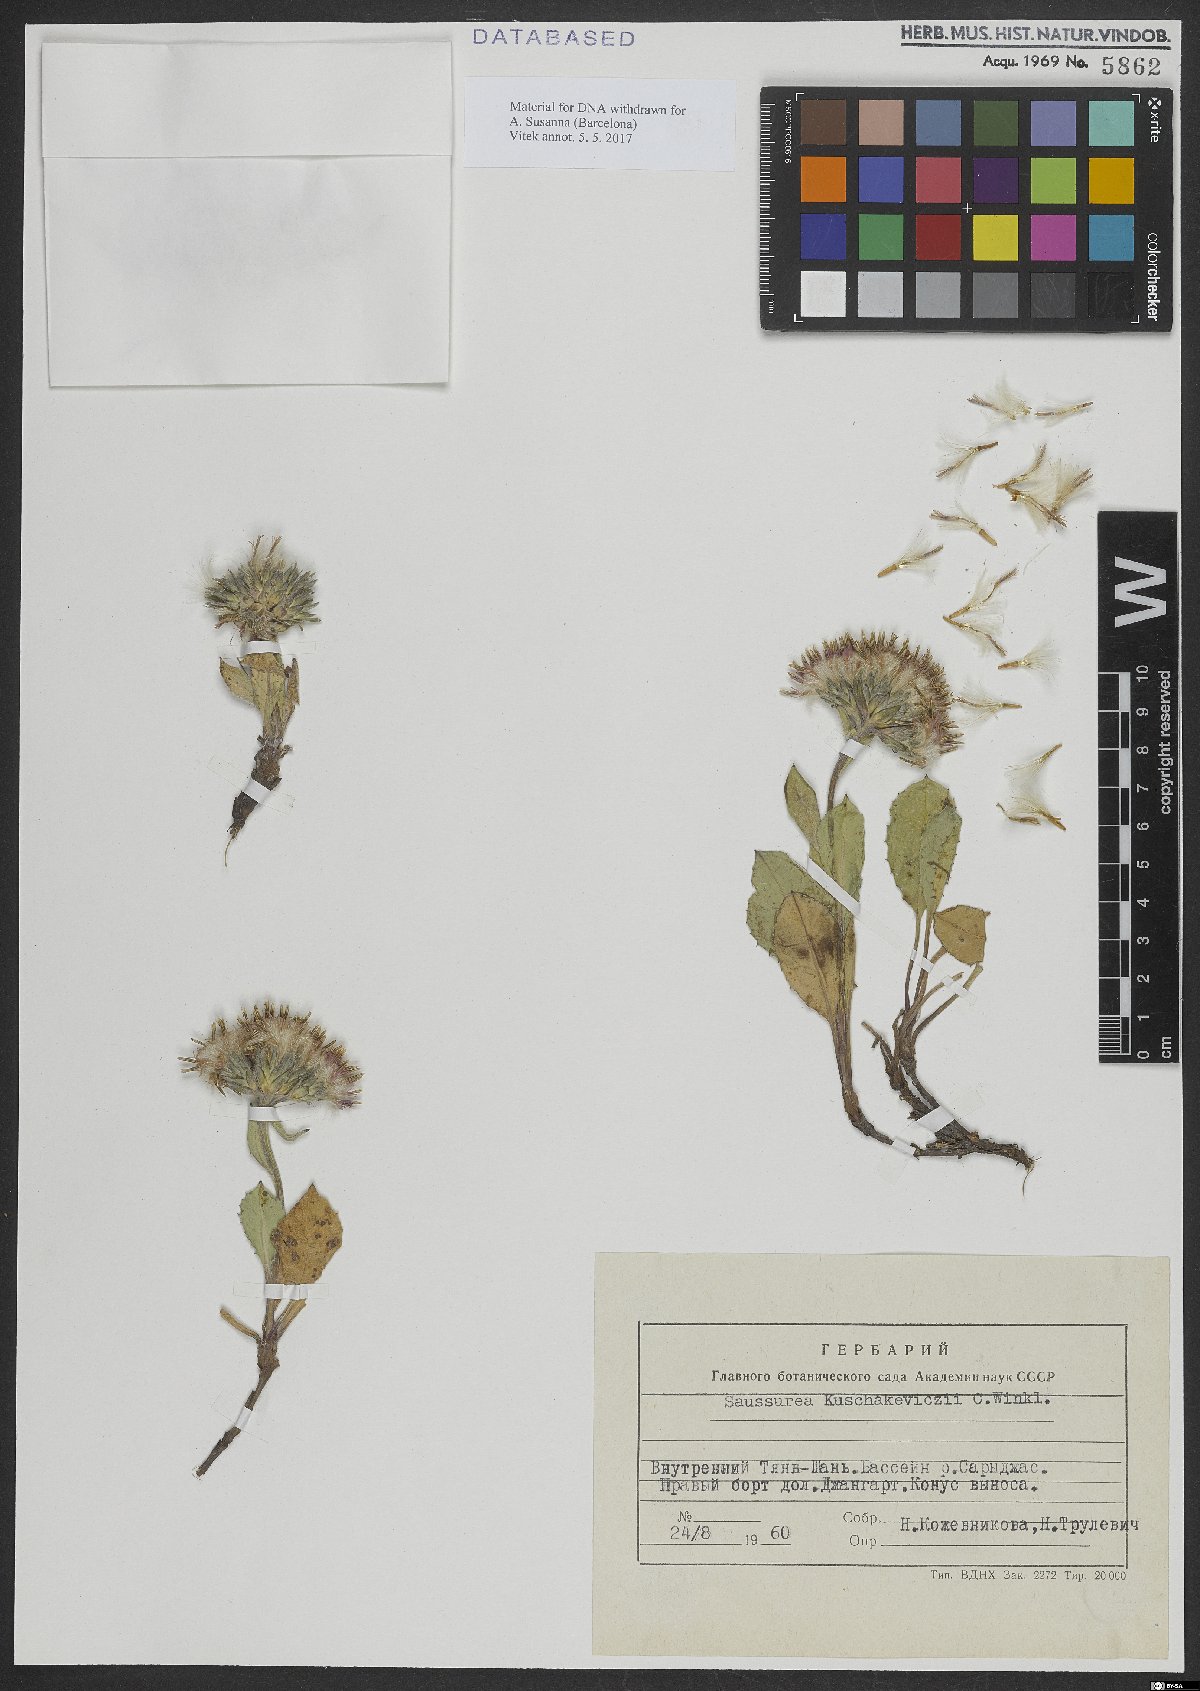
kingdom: Plantae
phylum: Tracheophyta
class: Magnoliopsida
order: Asterales
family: Asteraceae
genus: Saussurea
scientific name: Saussurea elliptica
